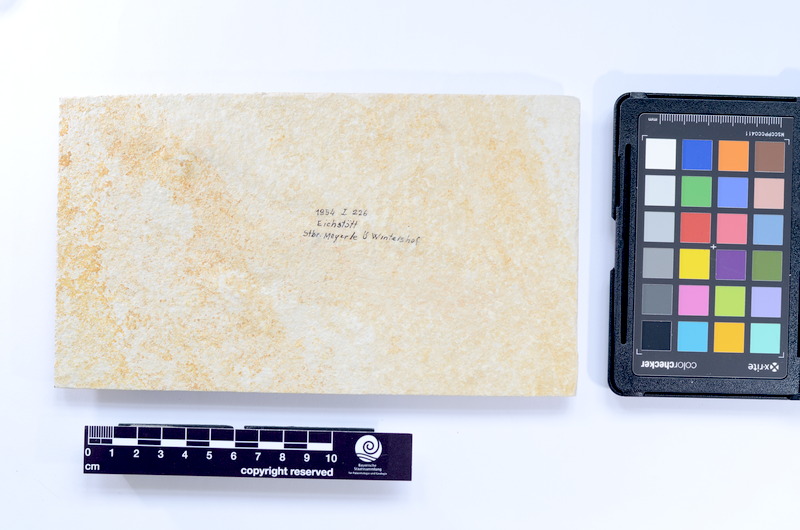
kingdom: Animalia
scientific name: Animalia
